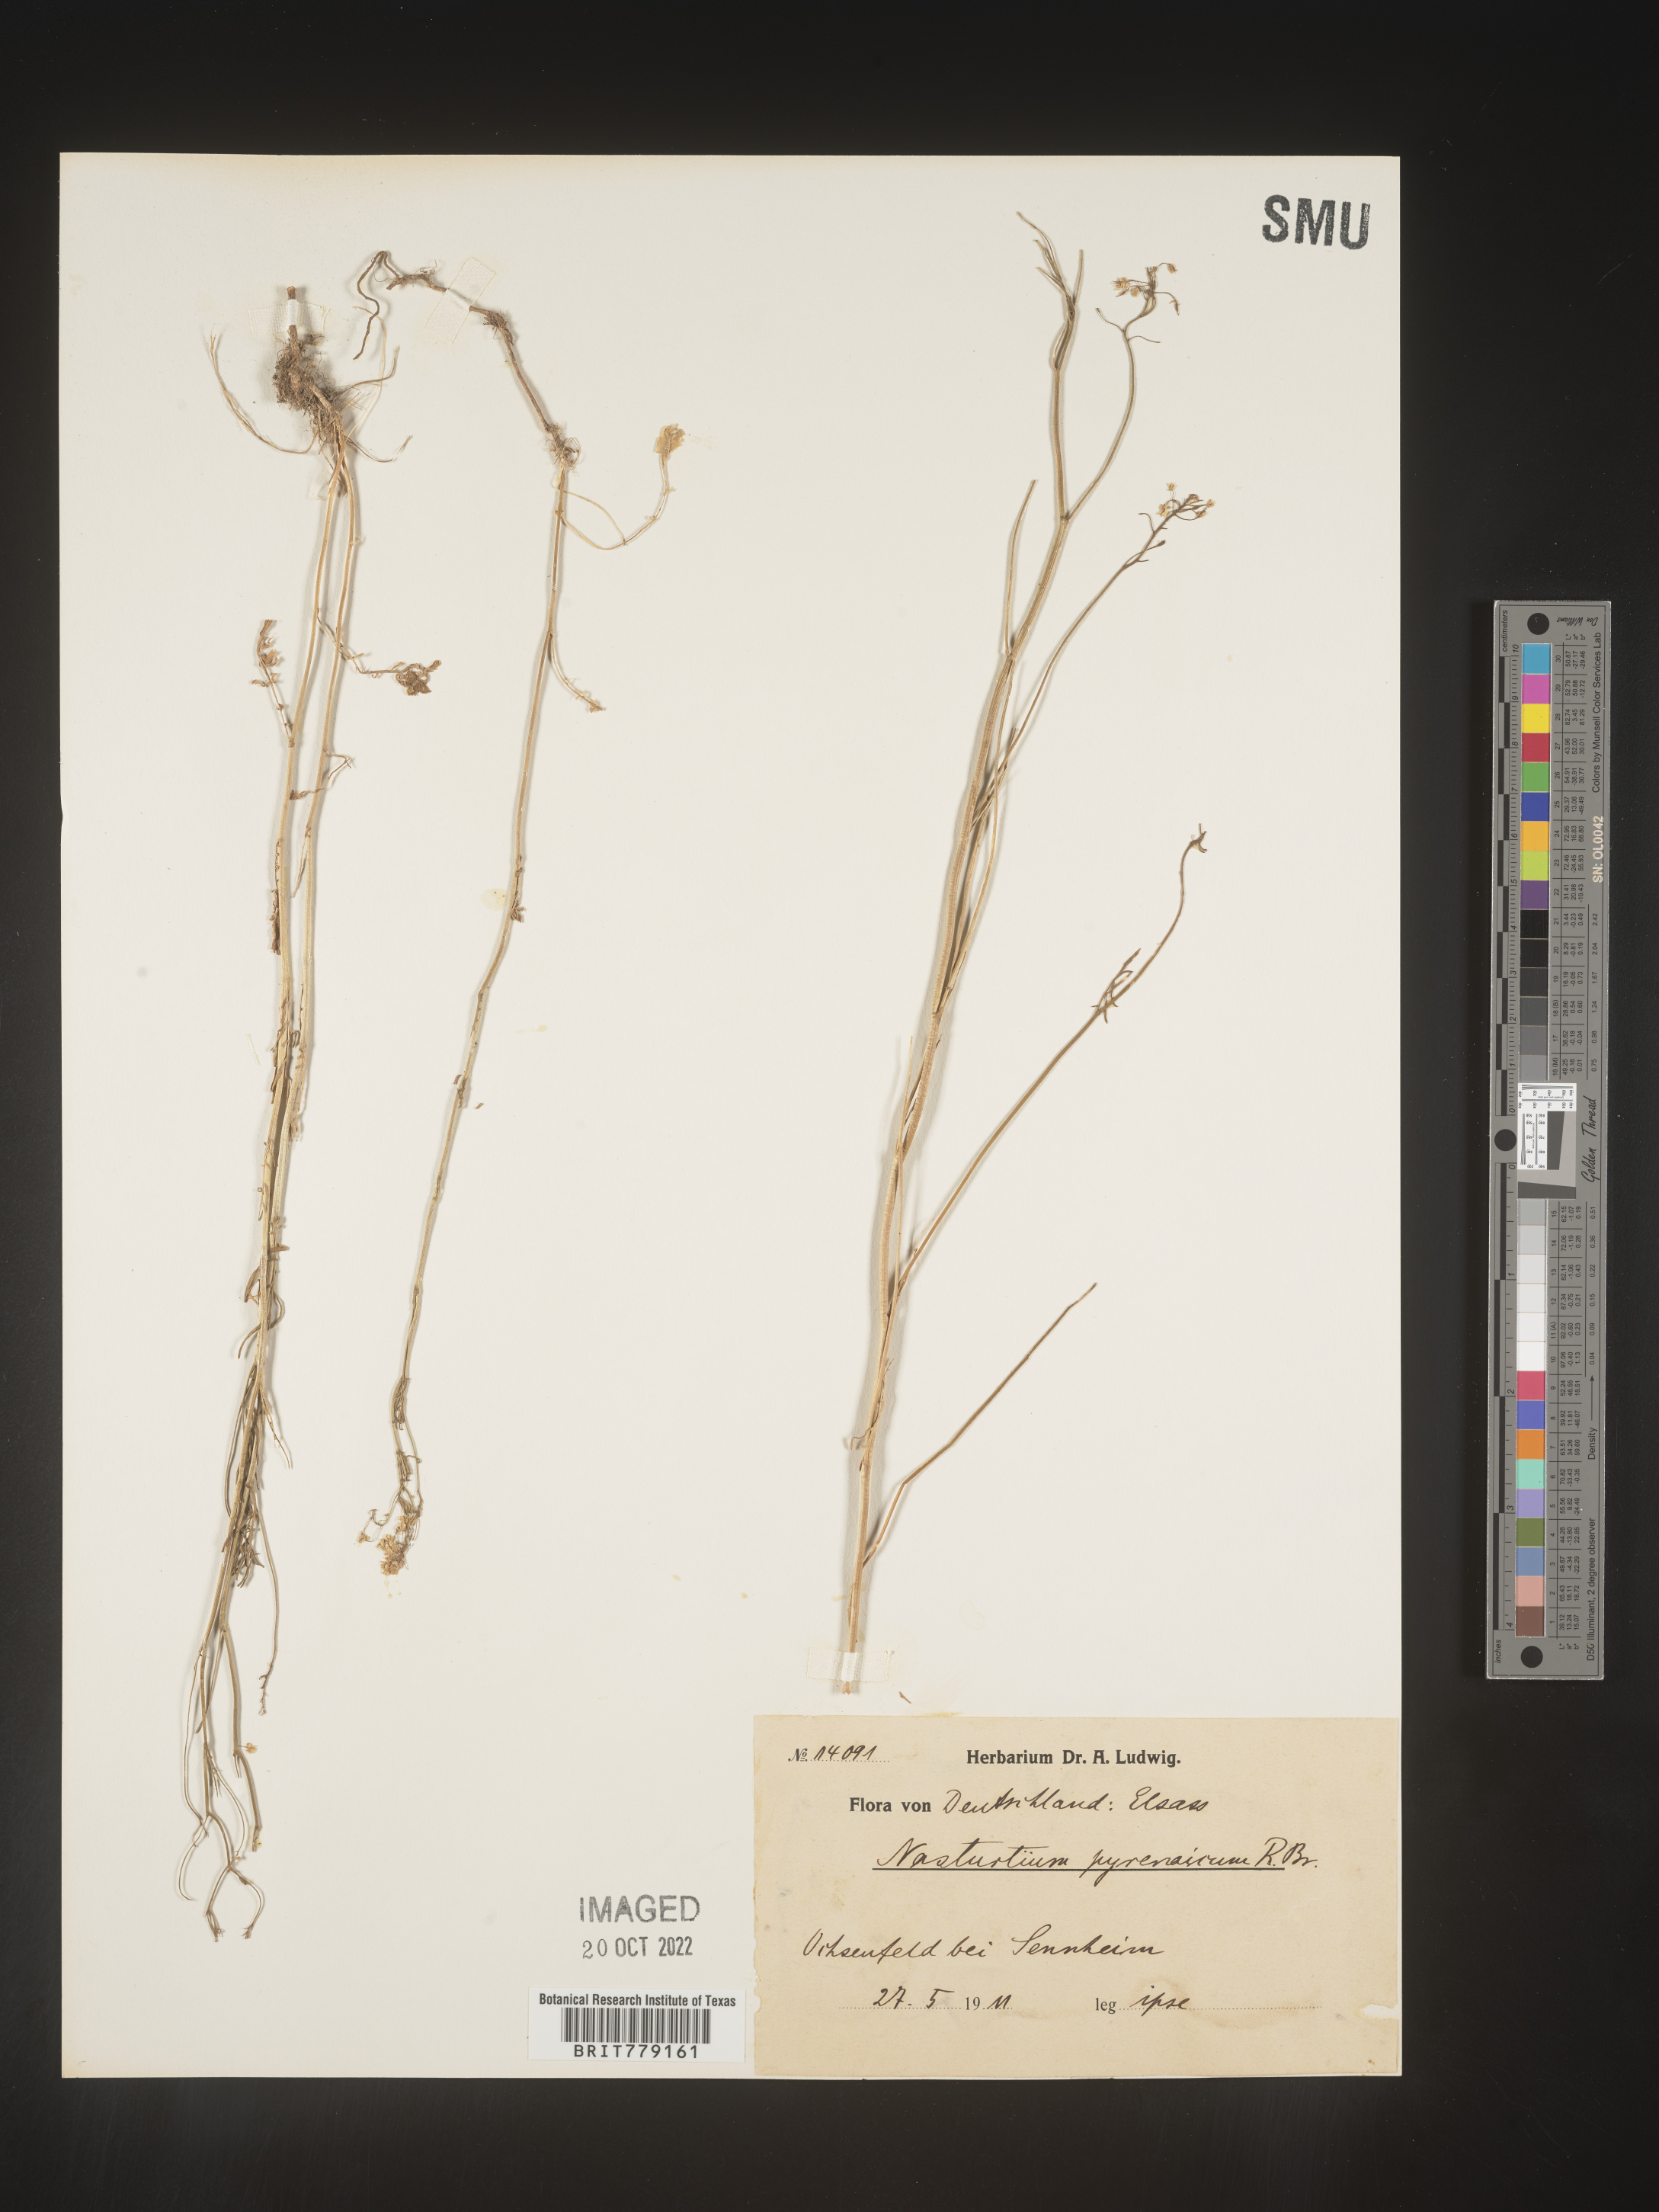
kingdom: Plantae
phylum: Tracheophyta
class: Magnoliopsida
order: Brassicales
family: Brassicaceae
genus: Rorippa
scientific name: Rorippa
